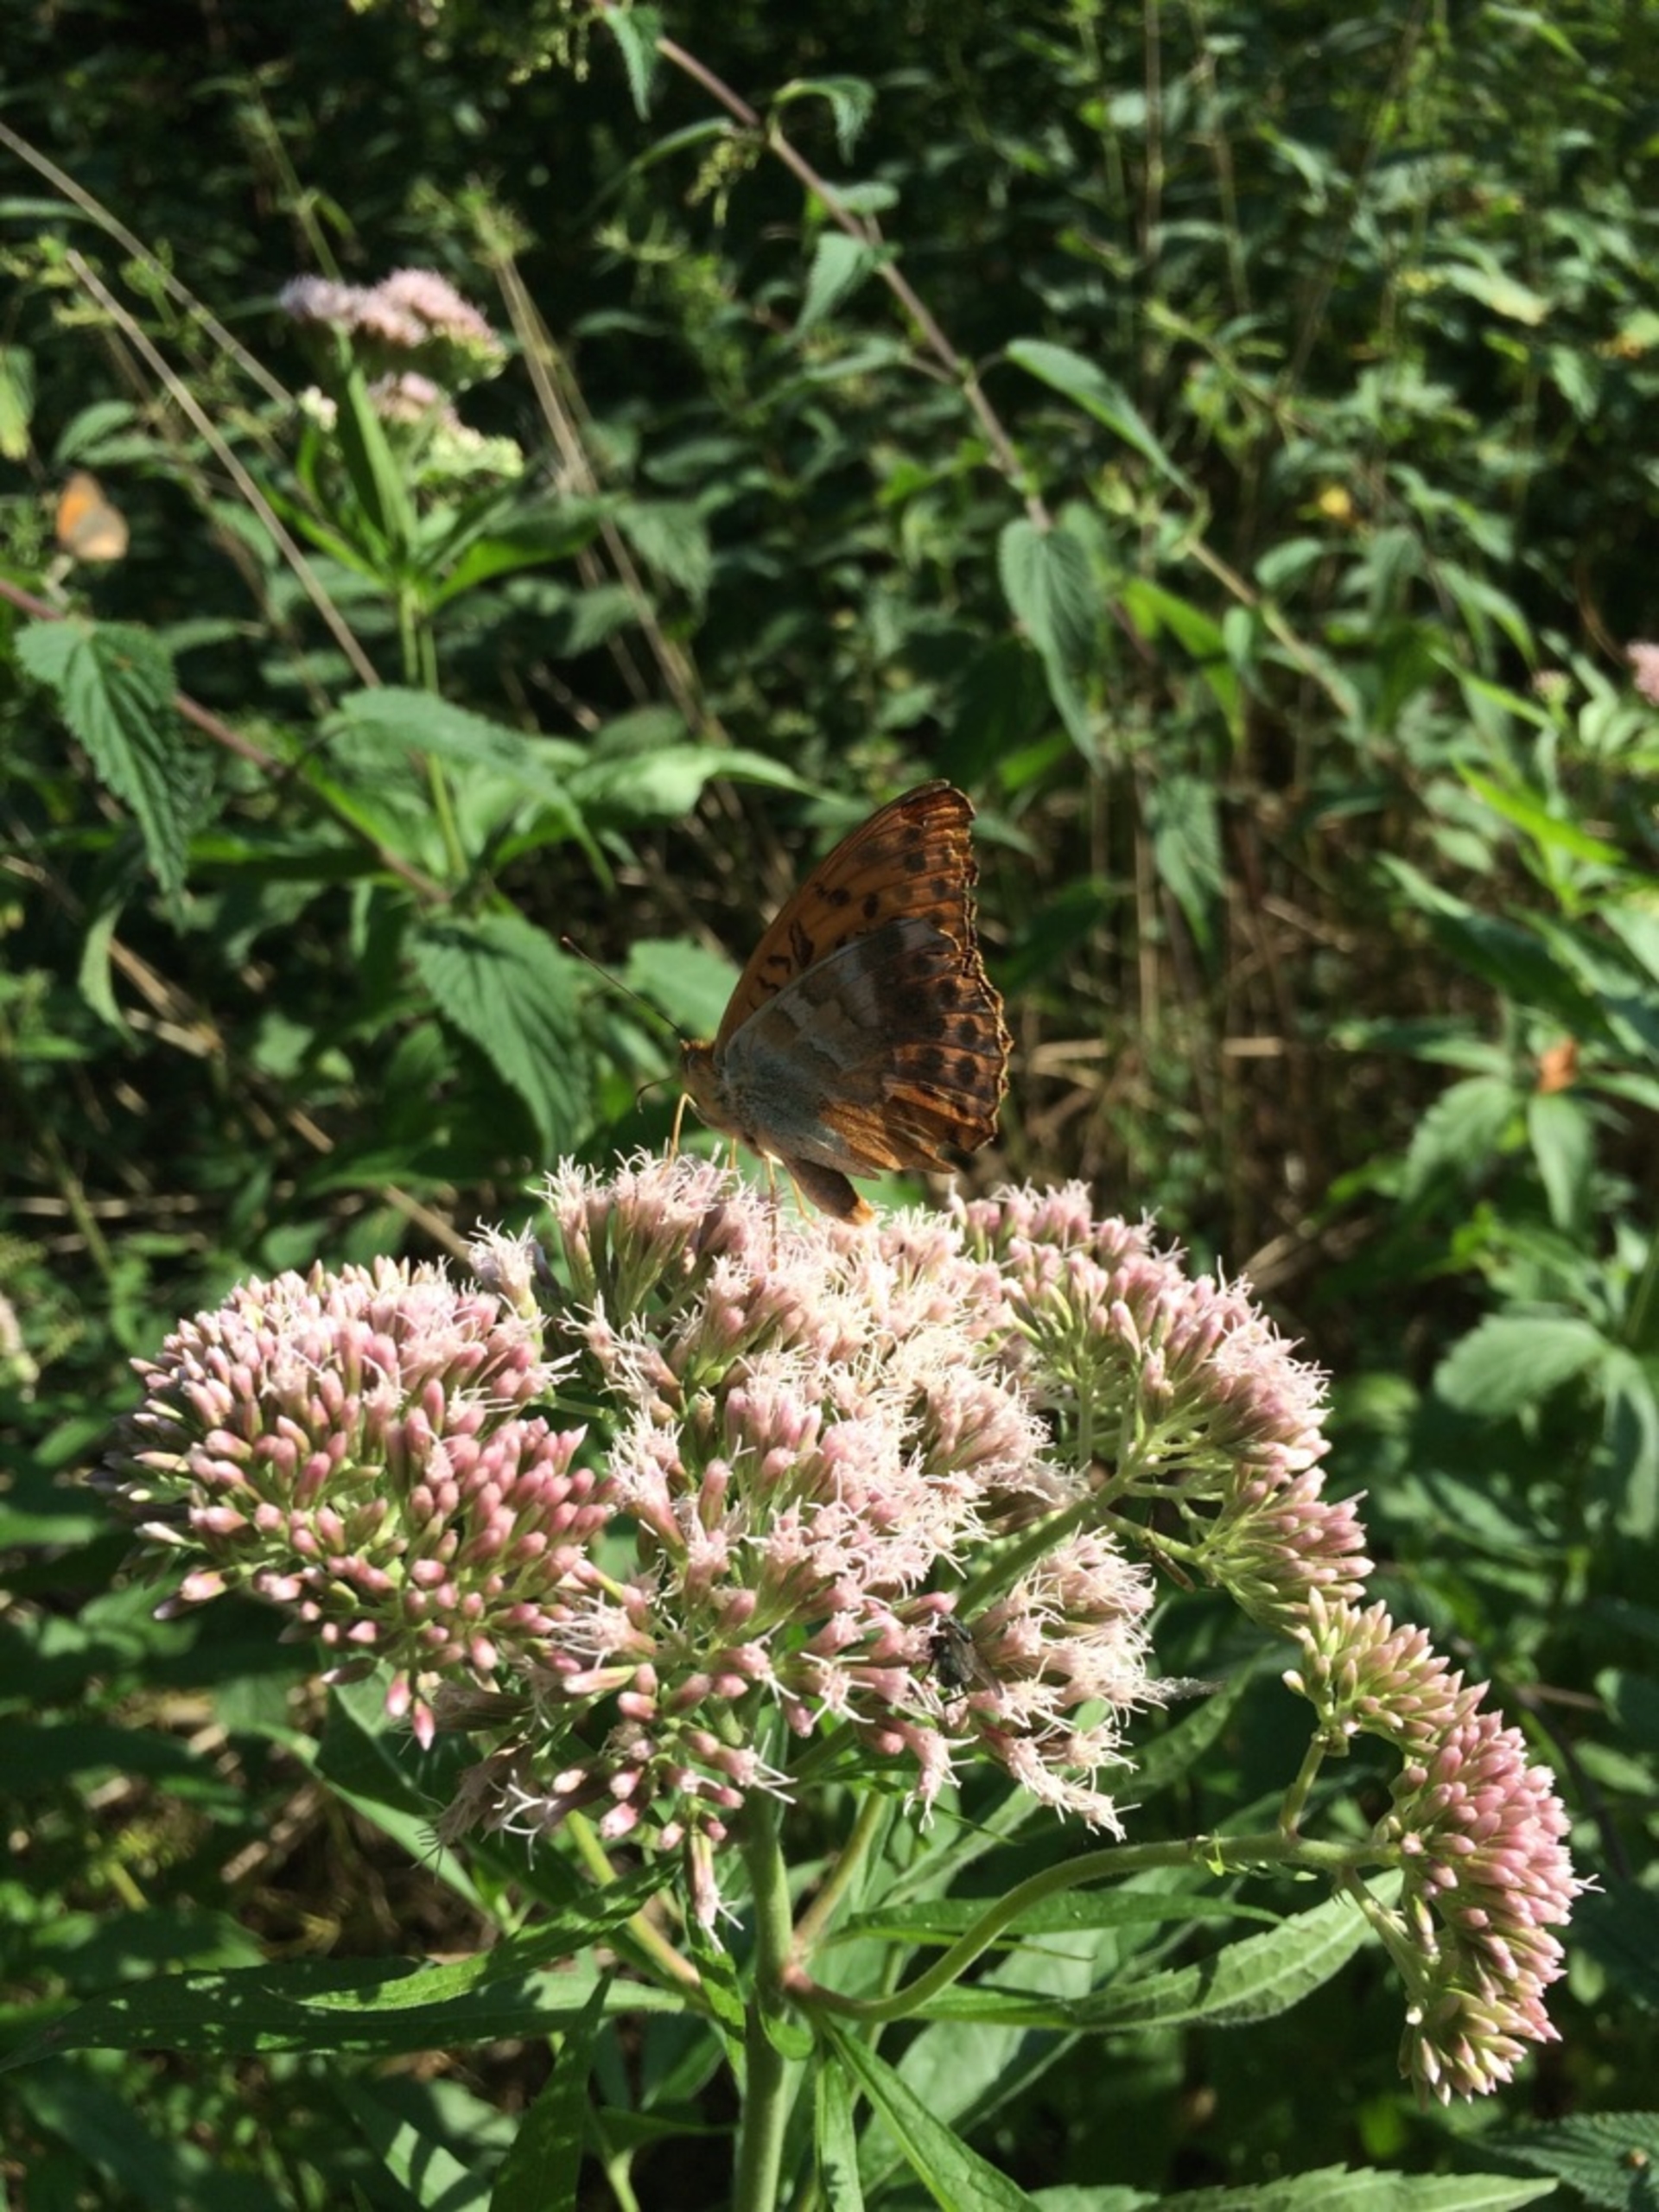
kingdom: Animalia
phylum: Arthropoda
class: Insecta
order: Lepidoptera
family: Nymphalidae
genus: Argynnis
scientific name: Argynnis paphia
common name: Kejserkåbe
